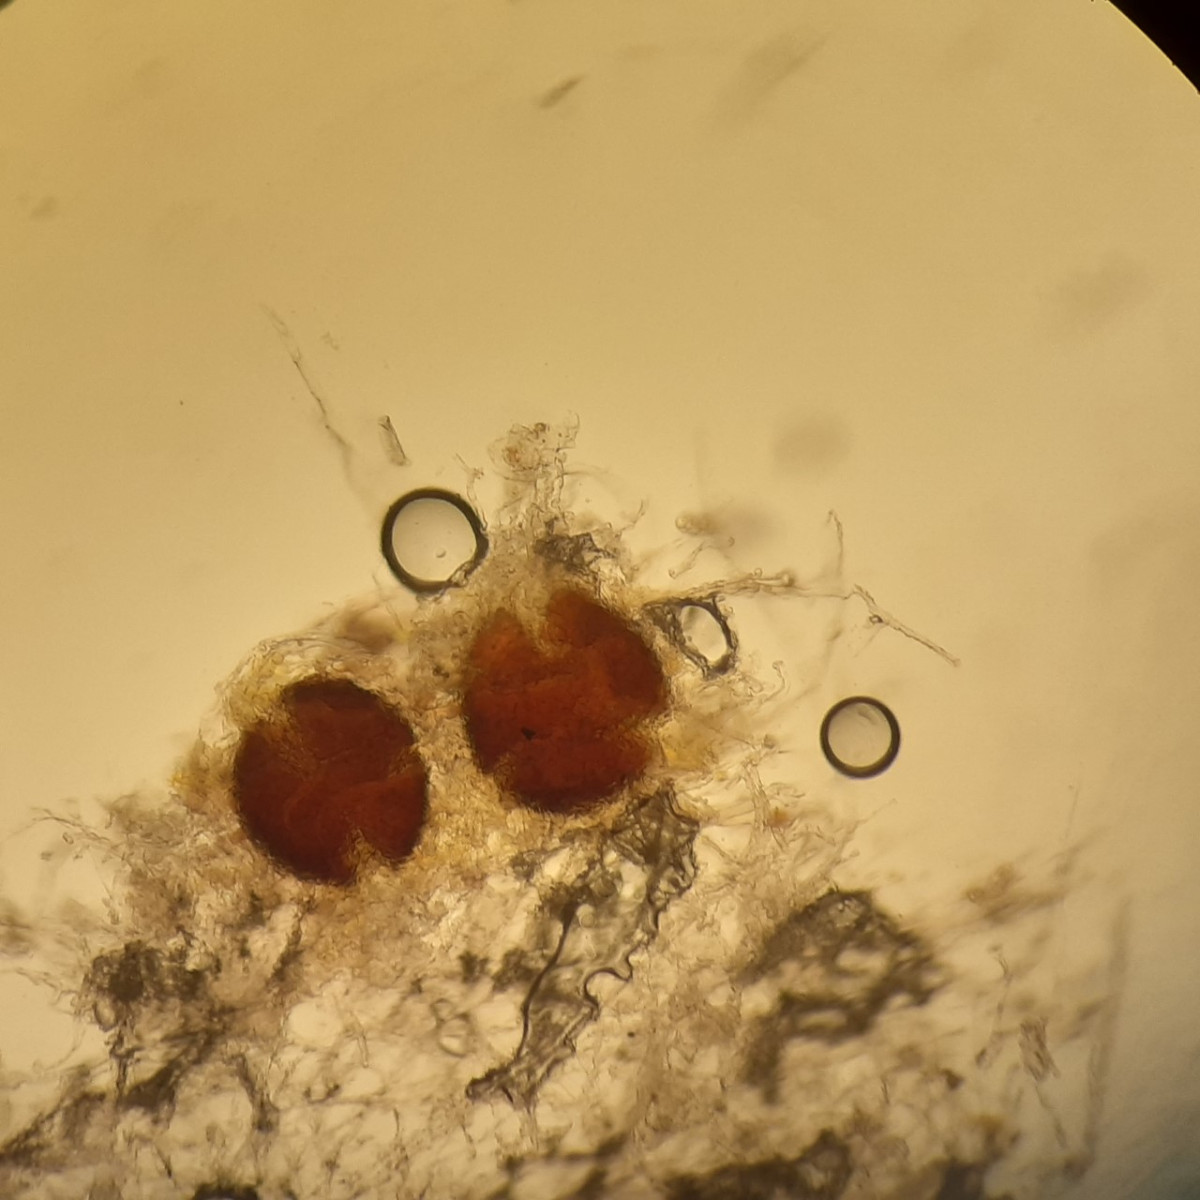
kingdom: Fungi
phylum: Ascomycota
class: Leotiomycetes
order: Helotiales
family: Erysiphaceae
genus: Erysiphe
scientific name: Erysiphe macleayae
